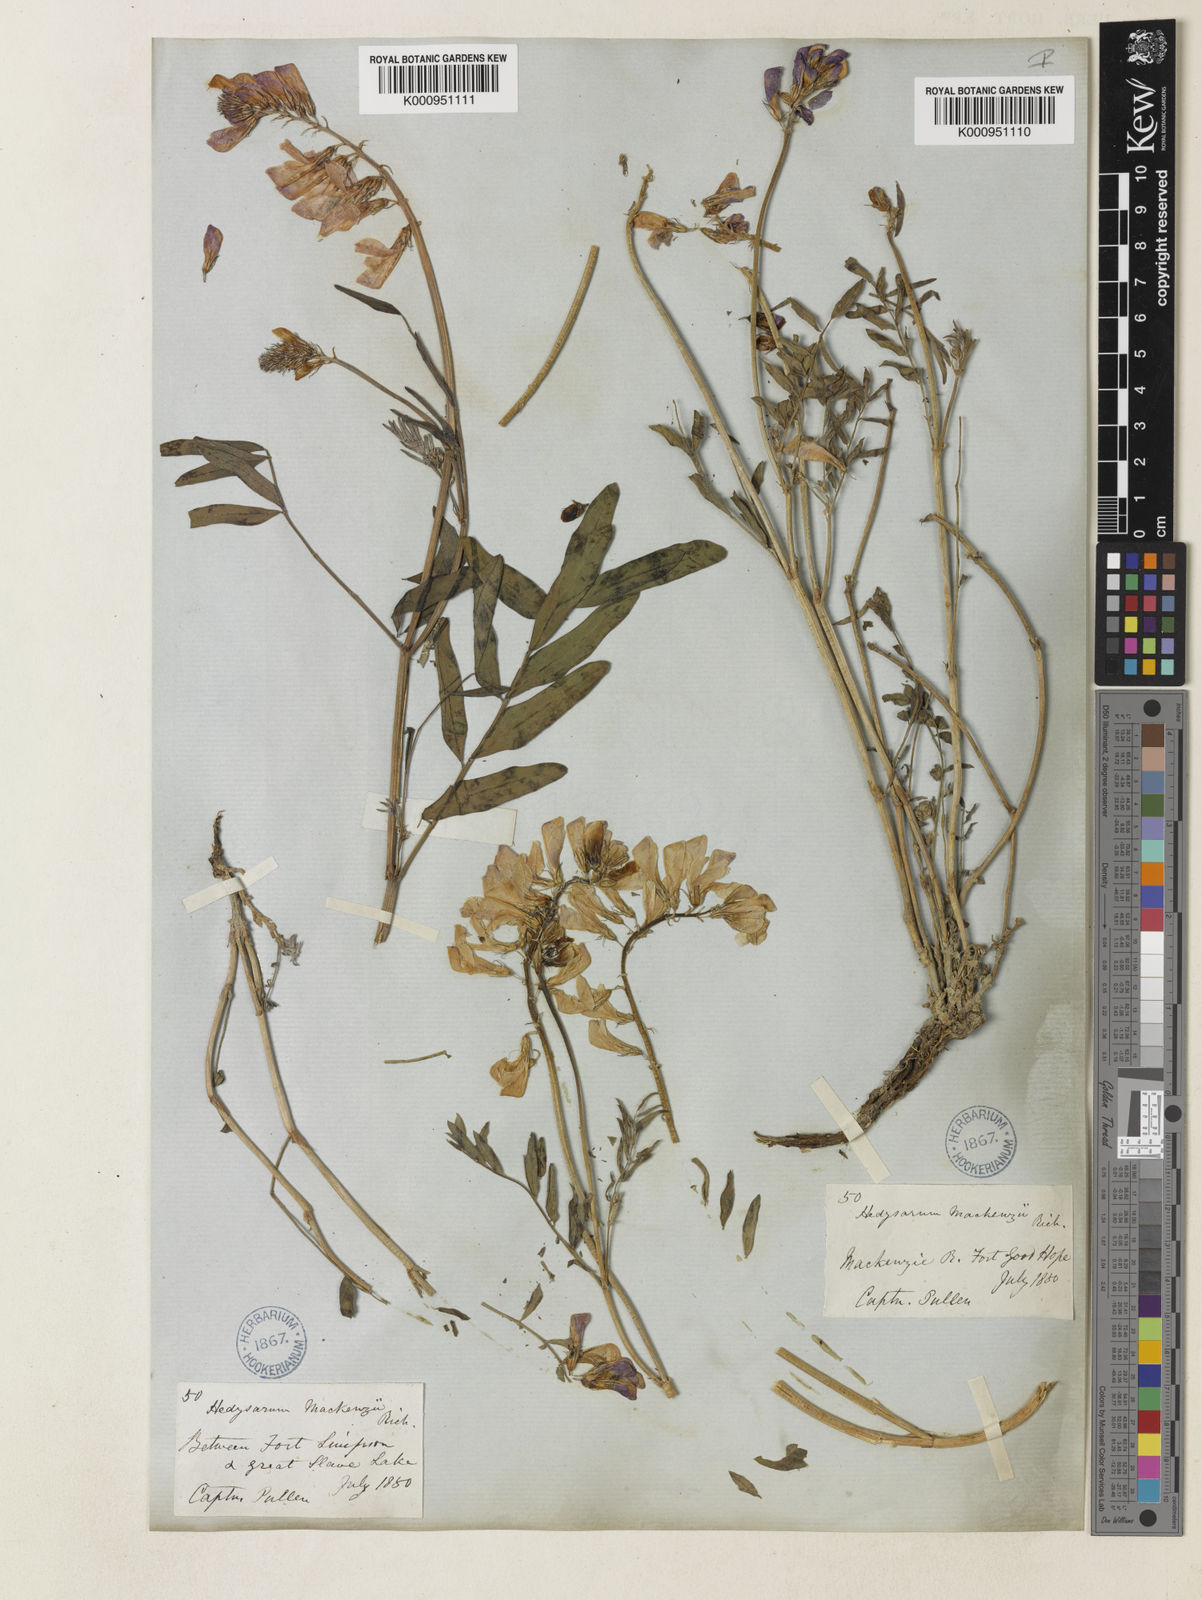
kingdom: Plantae
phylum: Tracheophyta
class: Magnoliopsida
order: Fabales
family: Fabaceae
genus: Hedysarum
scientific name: Hedysarum boreale
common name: Northern sweet-vetch
